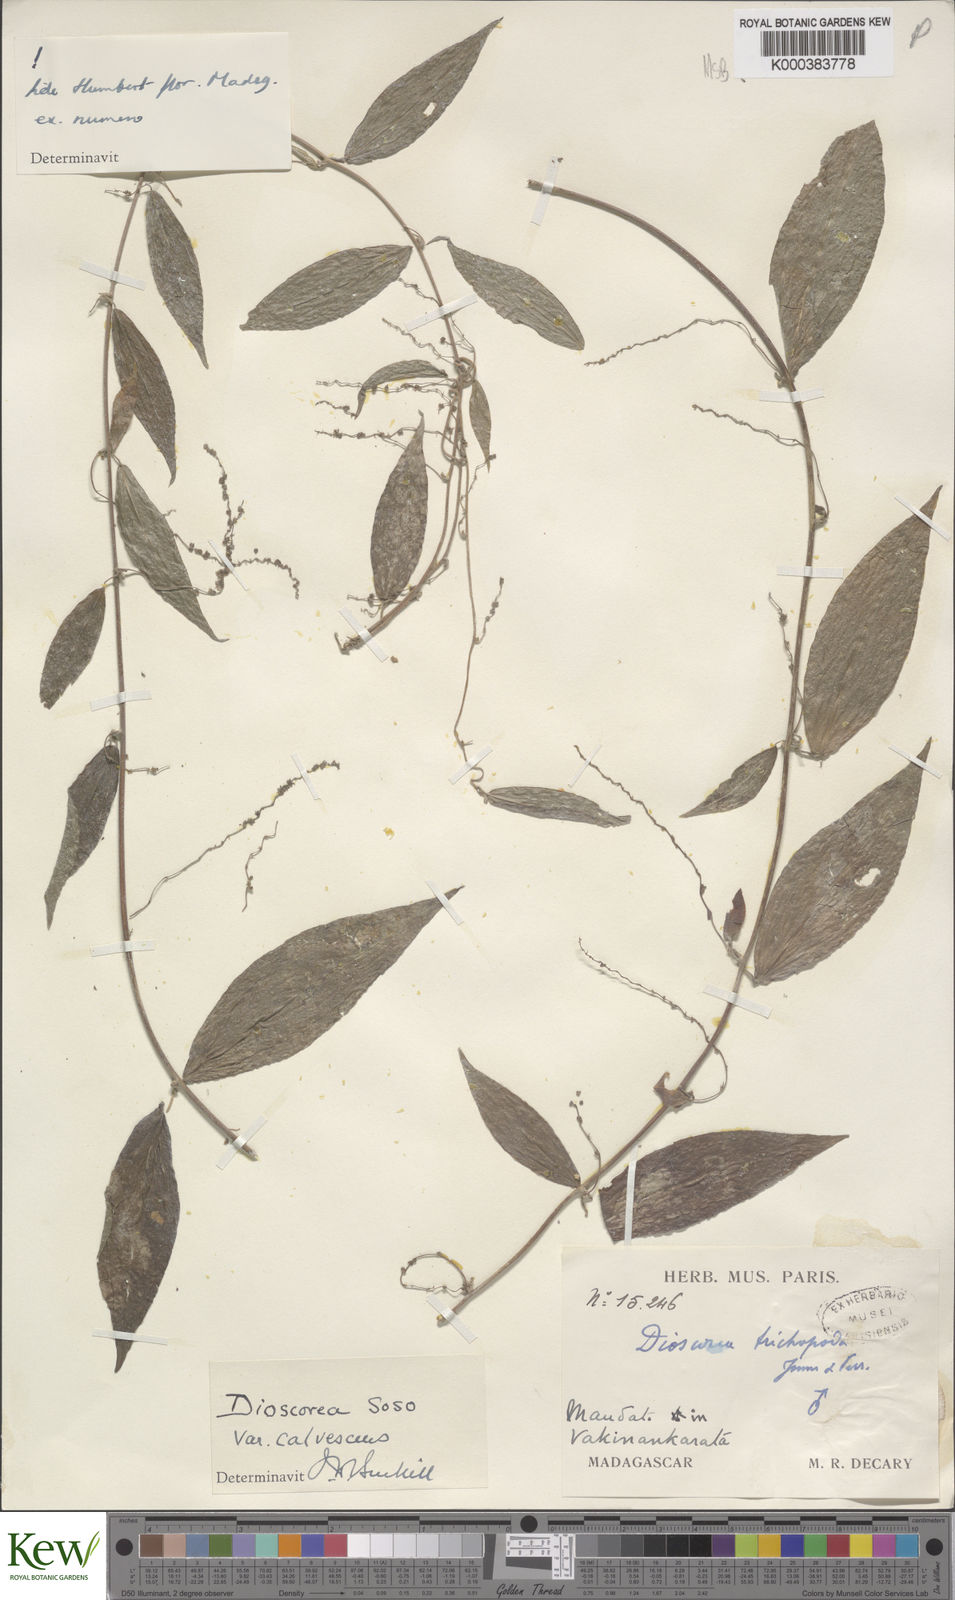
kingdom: Plantae
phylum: Tracheophyta
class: Liliopsida
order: Dioscoreales
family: Dioscoreaceae
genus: Dioscorea
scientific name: Dioscorea
